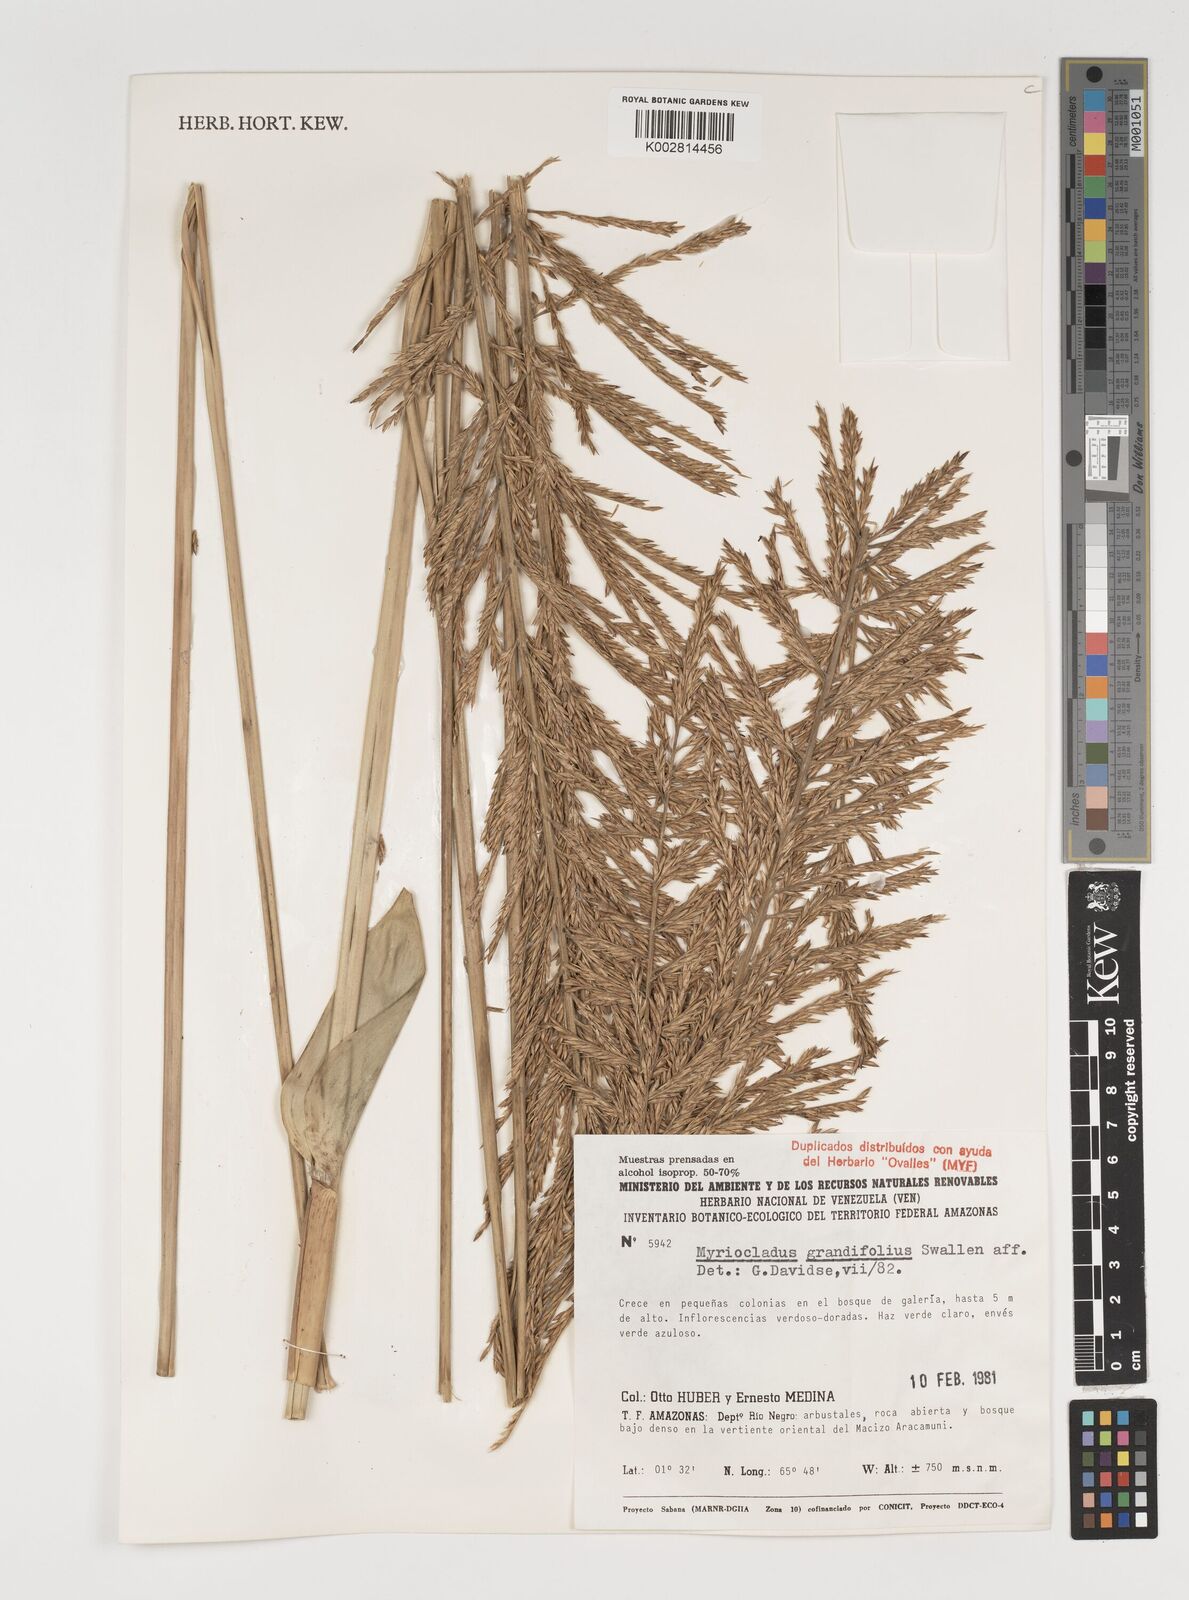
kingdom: Plantae
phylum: Tracheophyta
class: Liliopsida
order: Poales
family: Poaceae
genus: Myriocladus
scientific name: Myriocladus grandifolius
